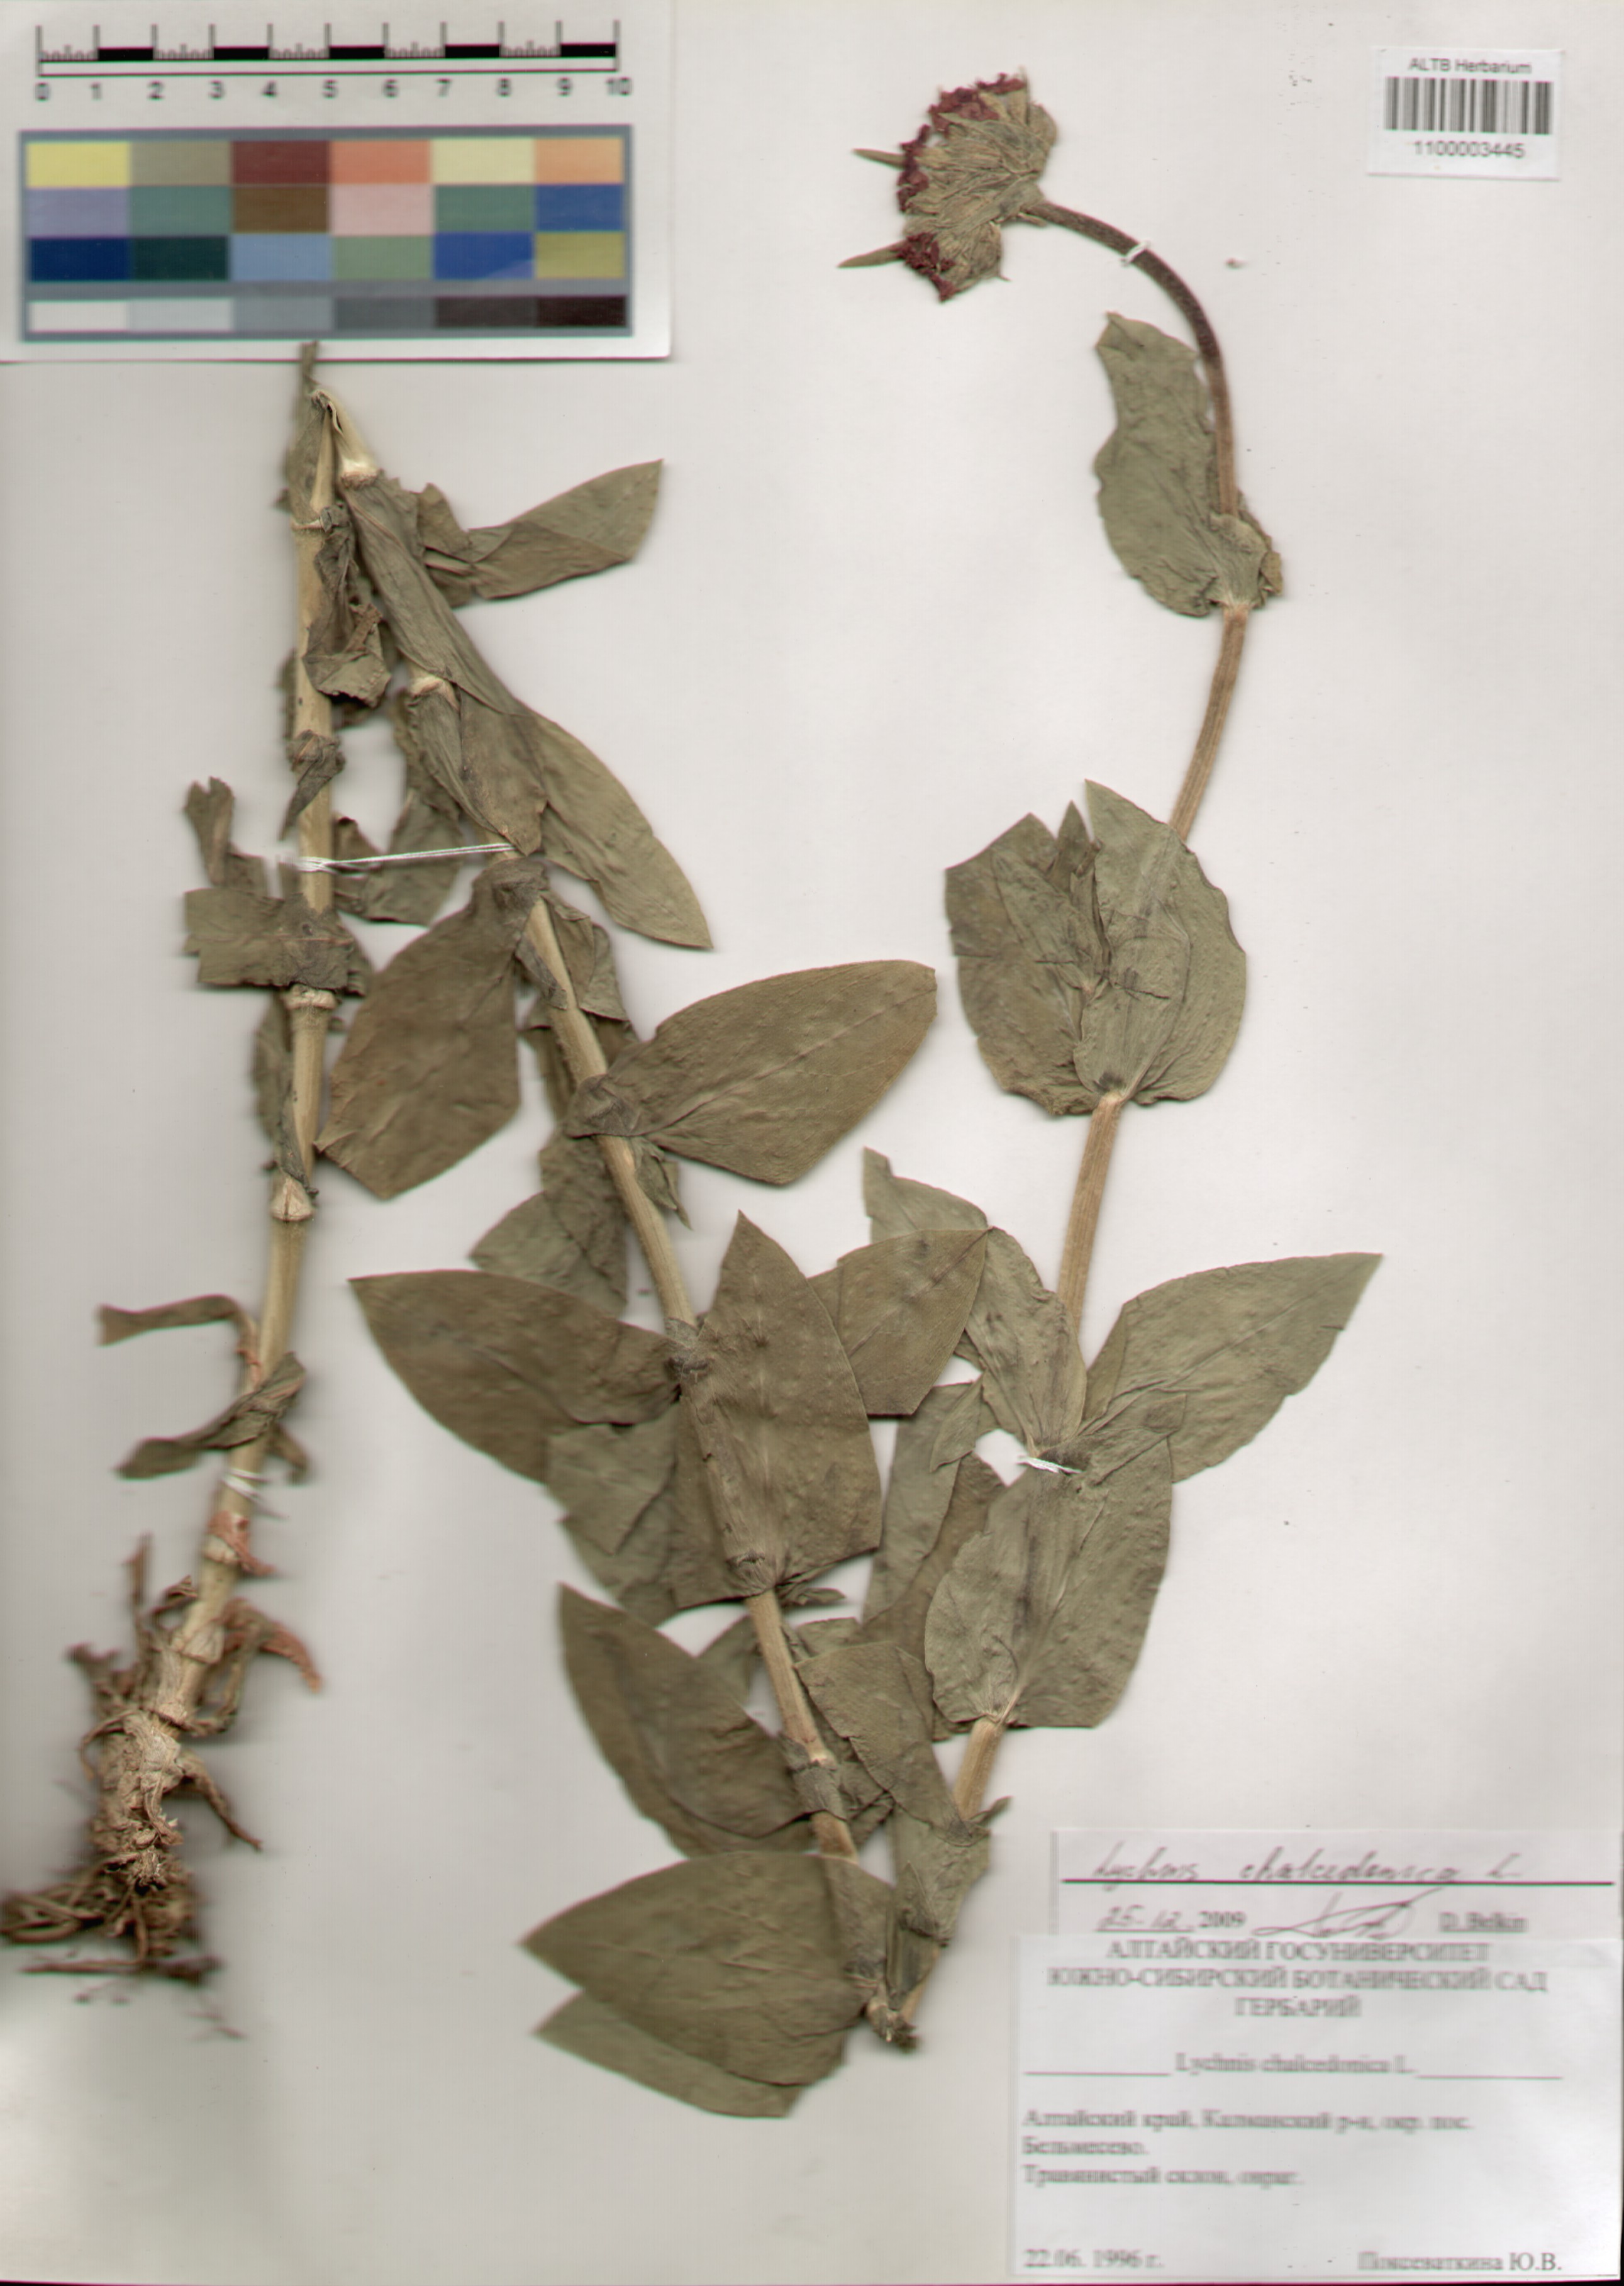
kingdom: Plantae
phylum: Tracheophyta
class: Magnoliopsida
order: Caryophyllales
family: Caryophyllaceae
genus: Silene
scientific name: Silene chalcedonica
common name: Maltese-cross
